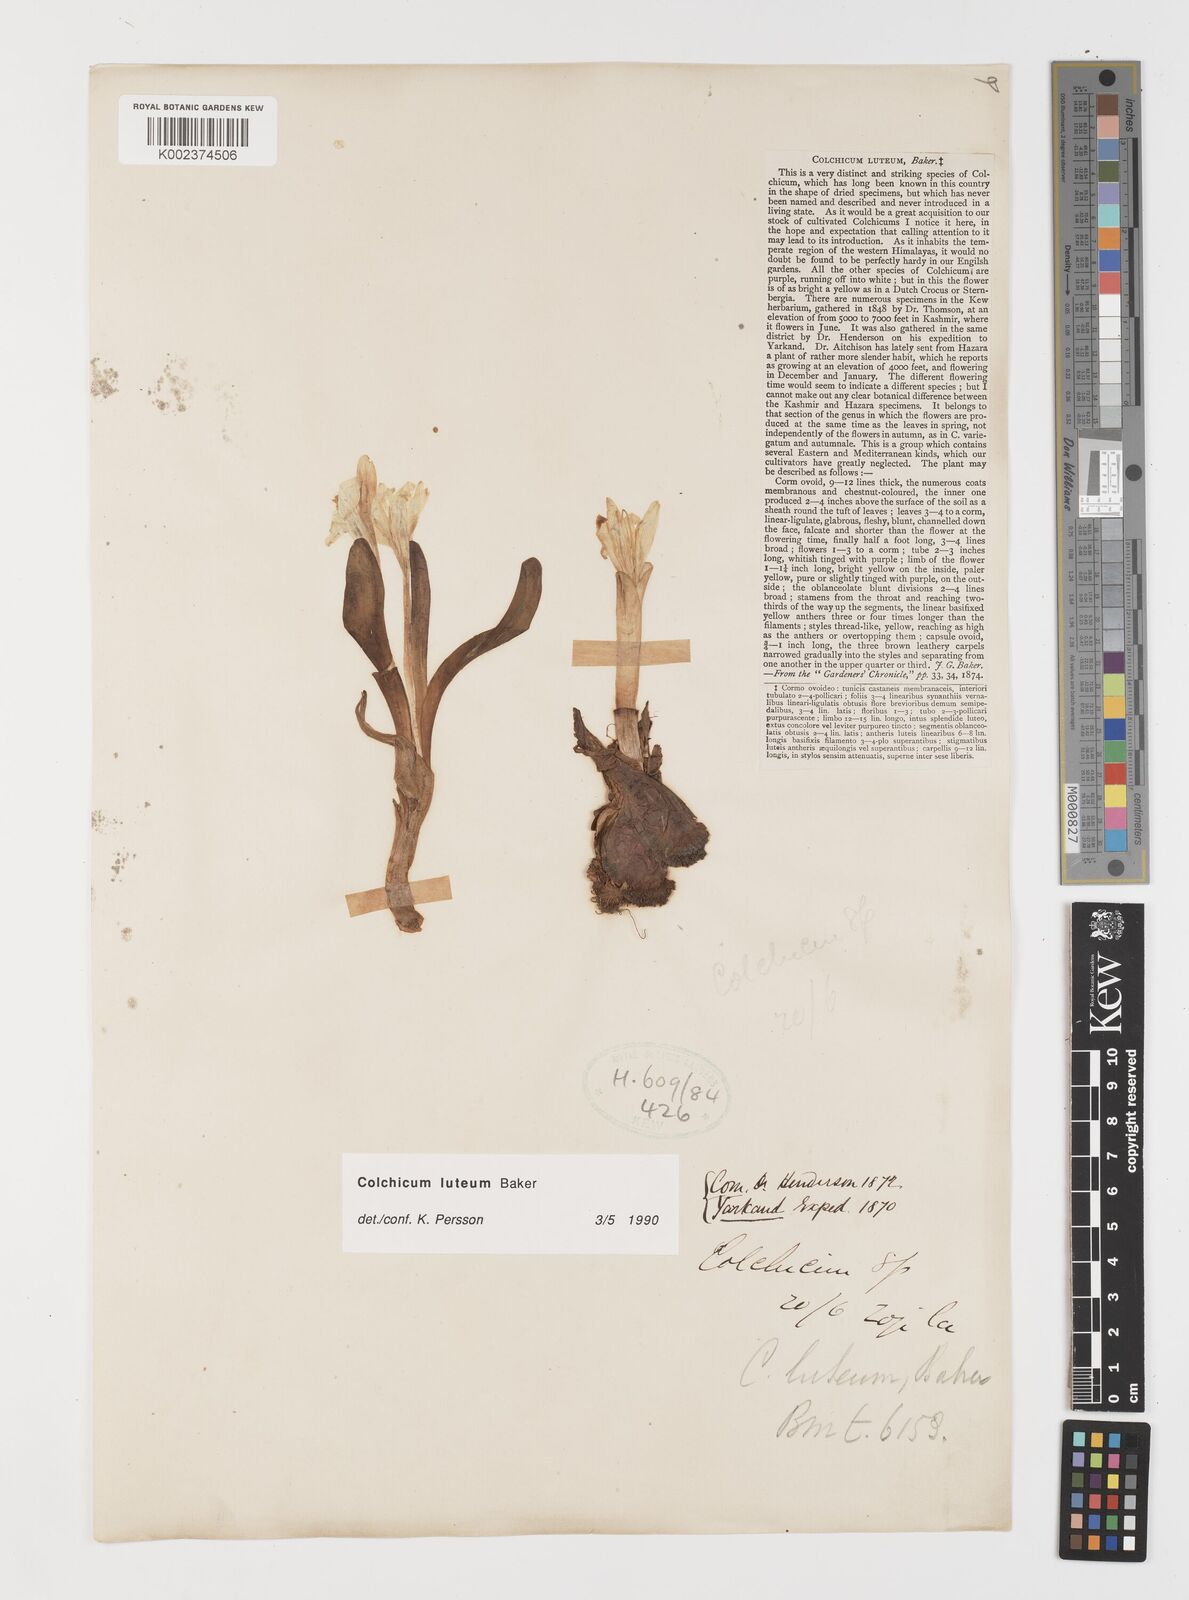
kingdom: Plantae
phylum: Tracheophyta
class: Liliopsida
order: Liliales
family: Colchicaceae
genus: Colchicum
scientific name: Colchicum luteum
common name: Indian colchicum
